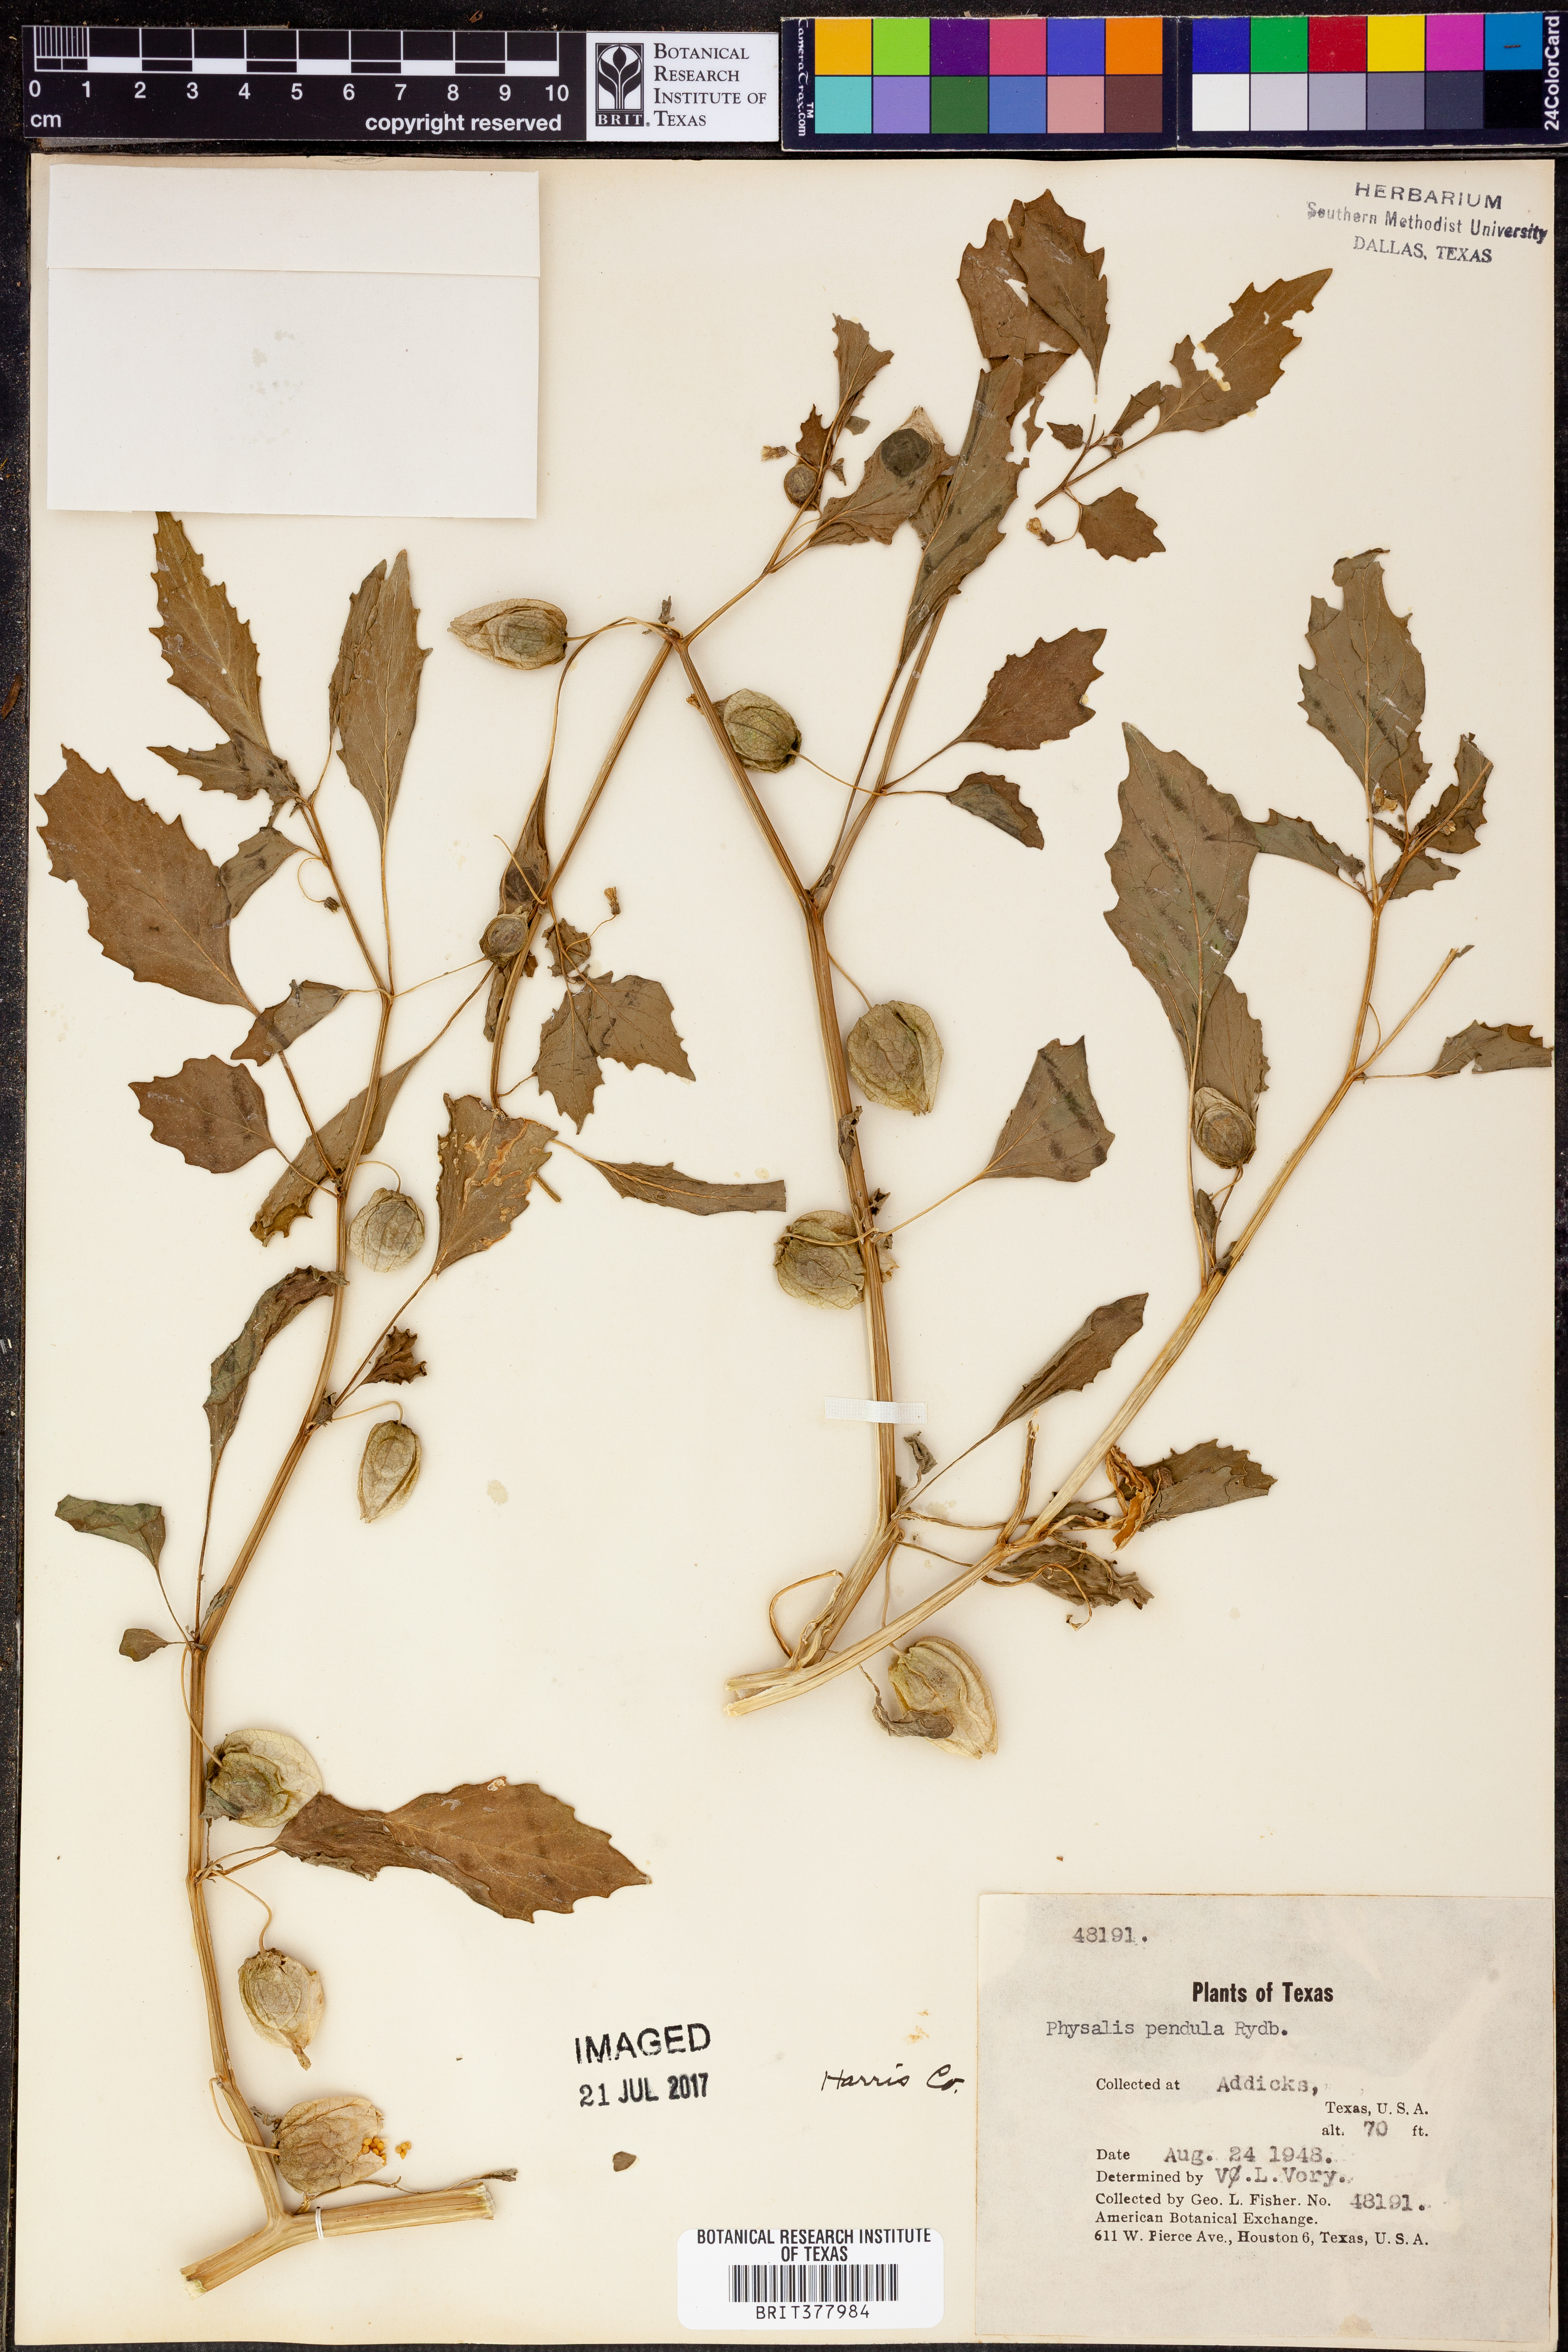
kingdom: Plantae
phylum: Tracheophyta
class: Magnoliopsida
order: Solanales
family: Solanaceae
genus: Physalis
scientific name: Physalis angulata
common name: Angular winter-cherry
